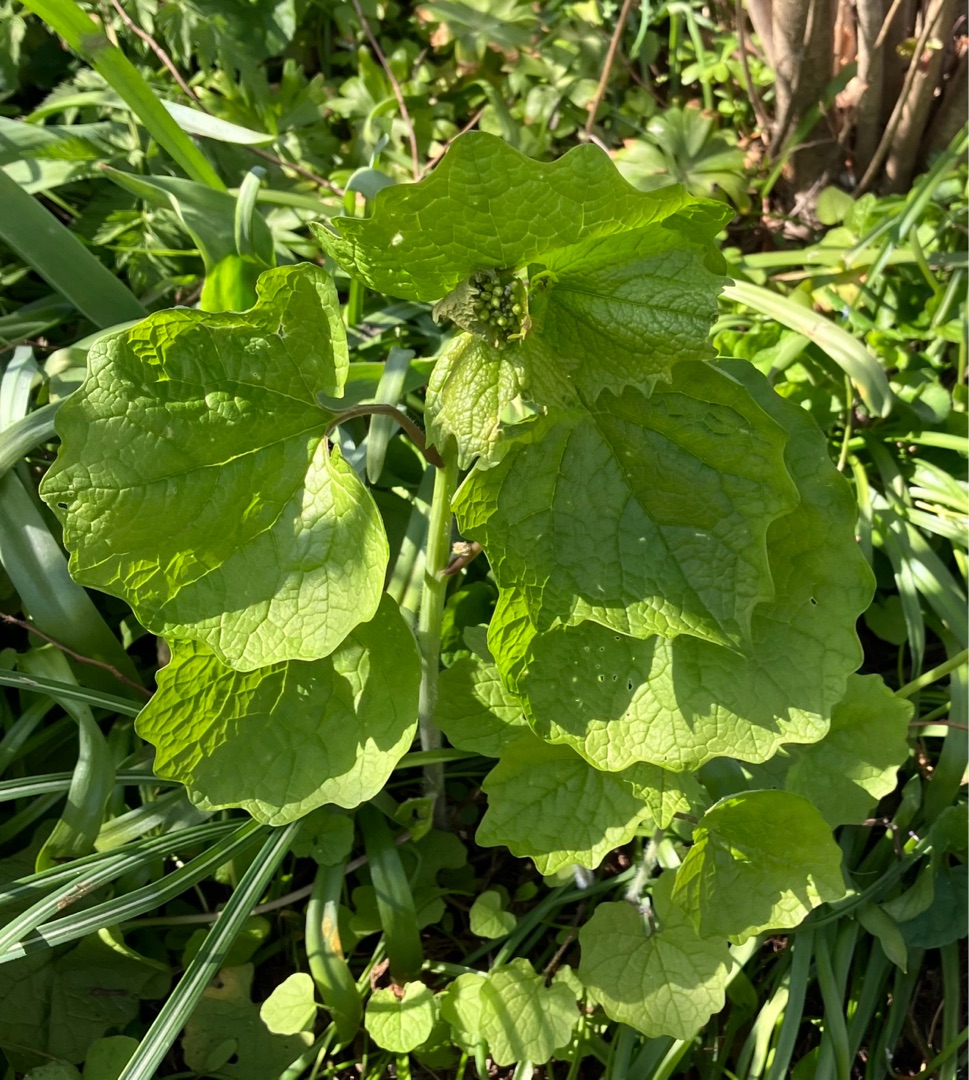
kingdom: Plantae
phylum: Tracheophyta
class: Magnoliopsida
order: Brassicales
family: Brassicaceae
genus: Alliaria
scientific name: Alliaria petiolata
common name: Løgkarse
